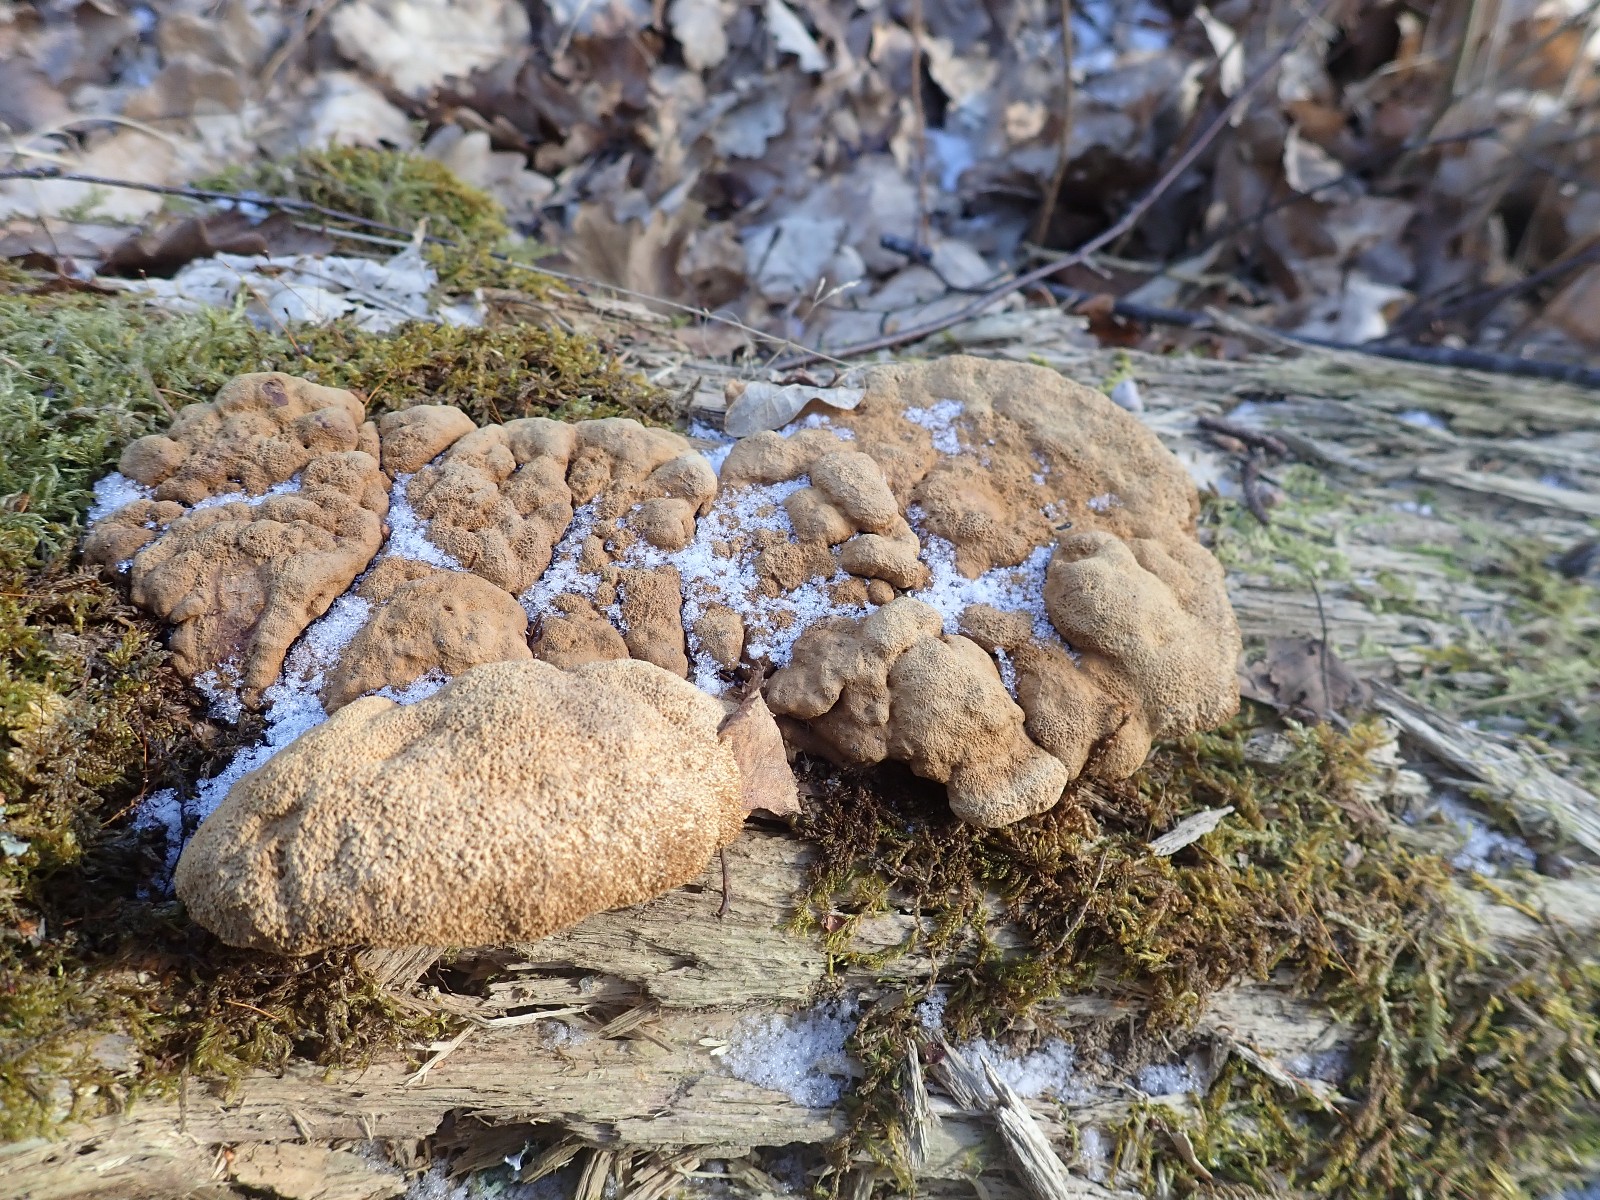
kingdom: Fungi
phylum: Basidiomycota
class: Agaricomycetes
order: Gloeophyllales
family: Gloeophyllaceae
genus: Gloeophyllum
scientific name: Gloeophyllum odoratum
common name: duftende korkhat
